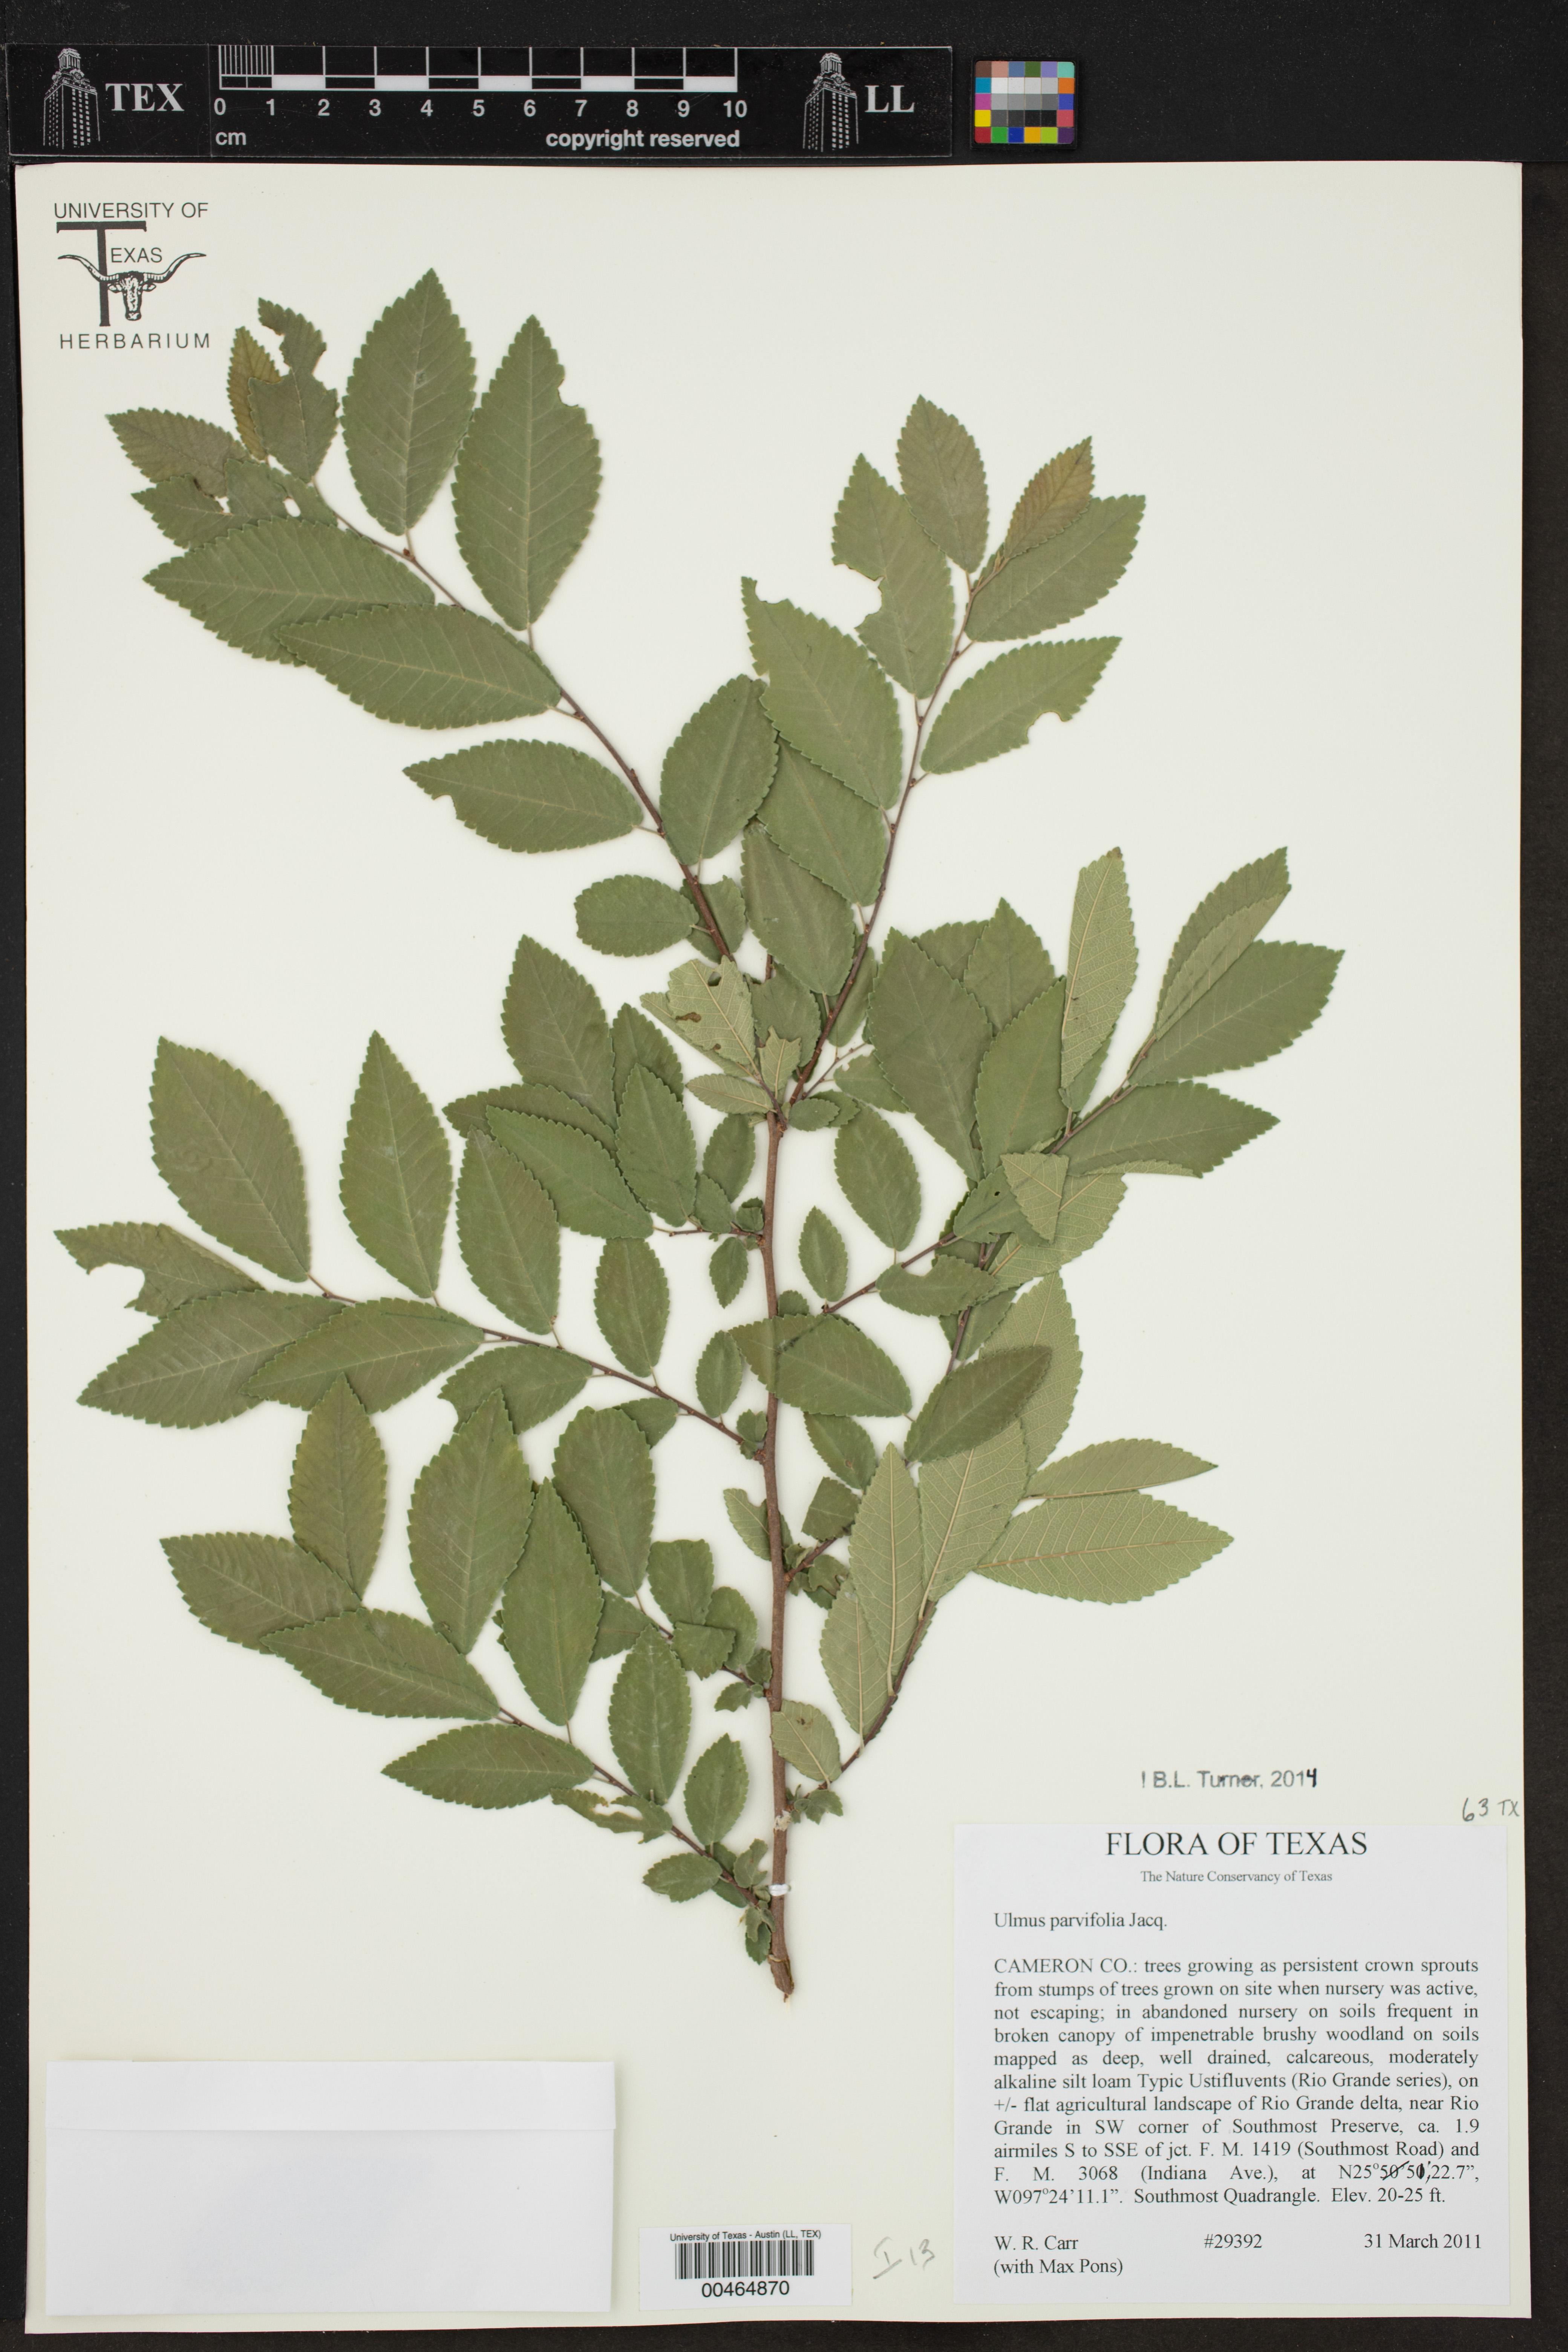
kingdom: Plantae
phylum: Tracheophyta
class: Magnoliopsida
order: Rosales
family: Ulmaceae
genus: Ulmus
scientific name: Ulmus parvifolia
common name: Chinese elm
